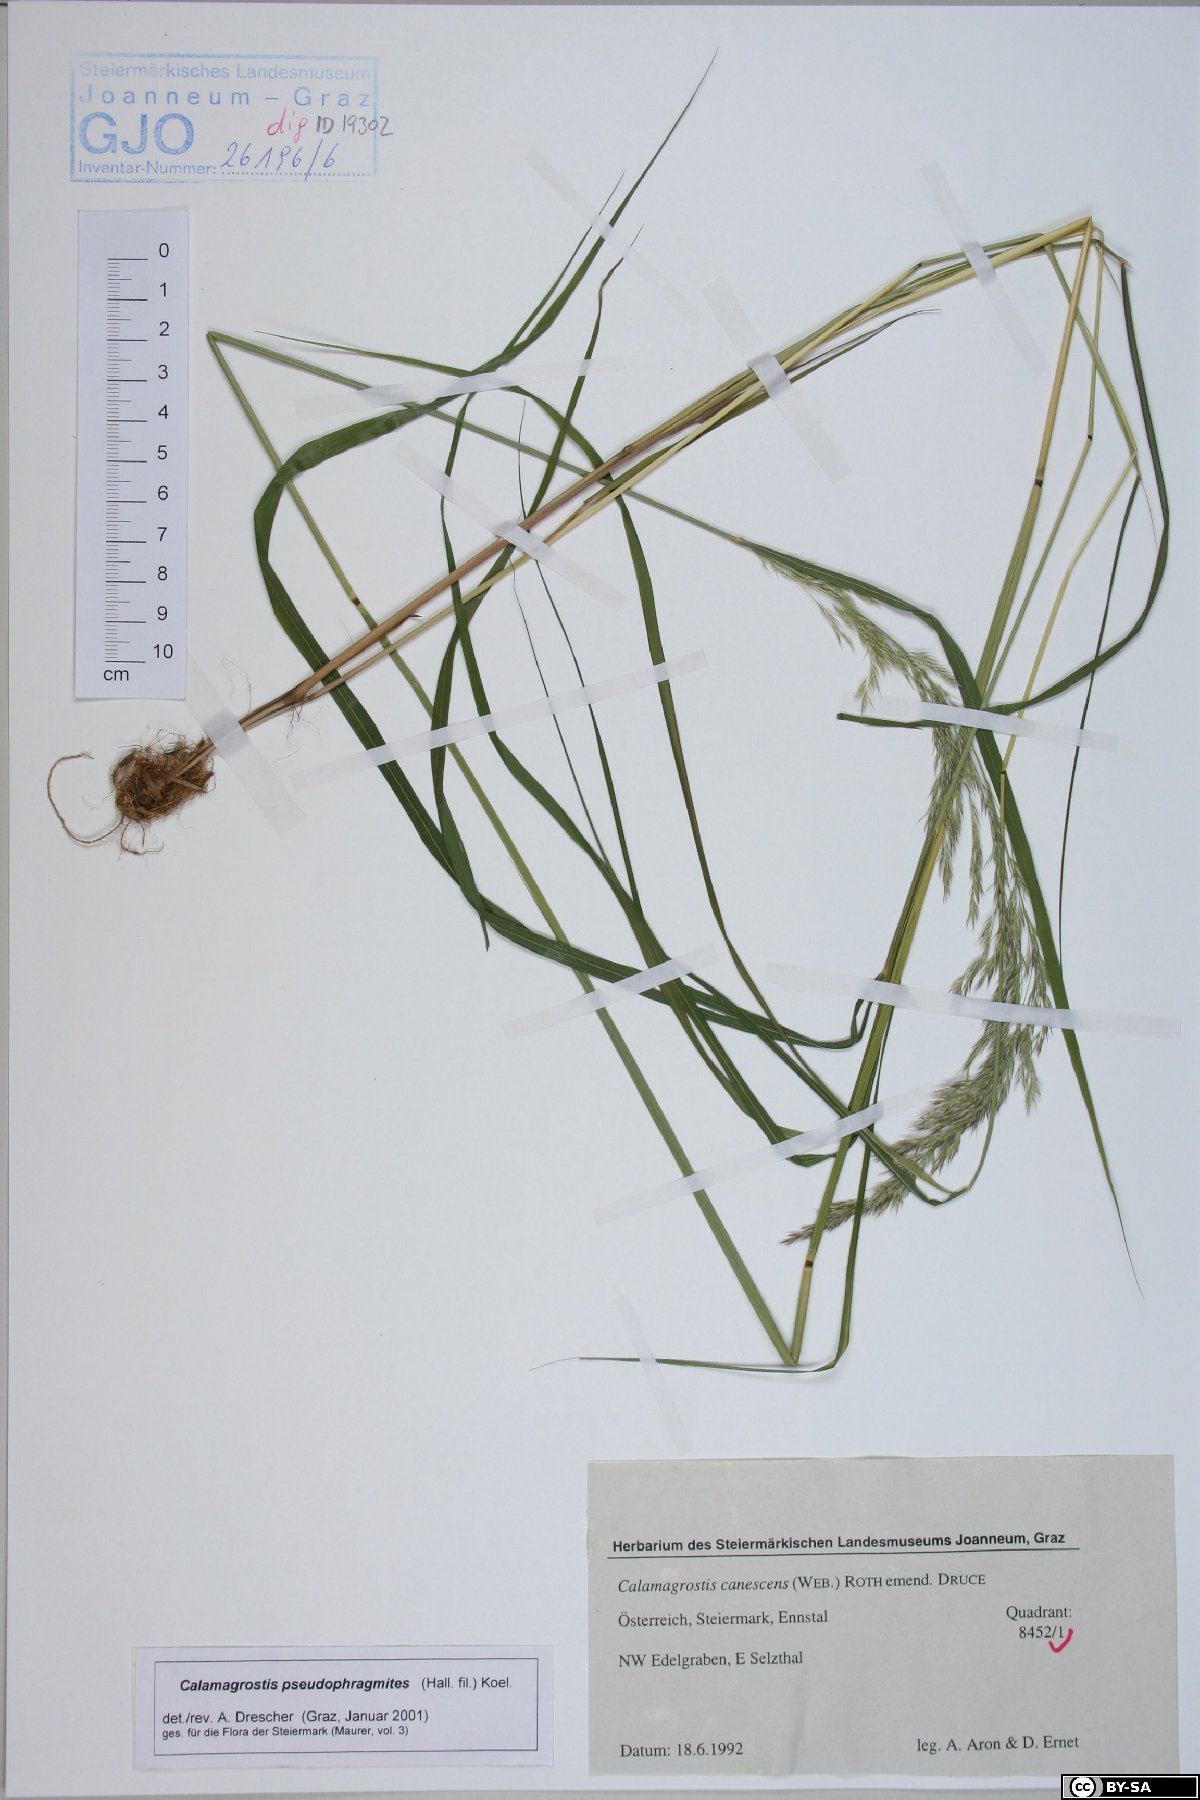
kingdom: Plantae
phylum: Tracheophyta
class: Liliopsida
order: Poales
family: Poaceae
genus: Calamagrostis
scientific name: Calamagrostis pseudophragmites
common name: Coastal small-reed
